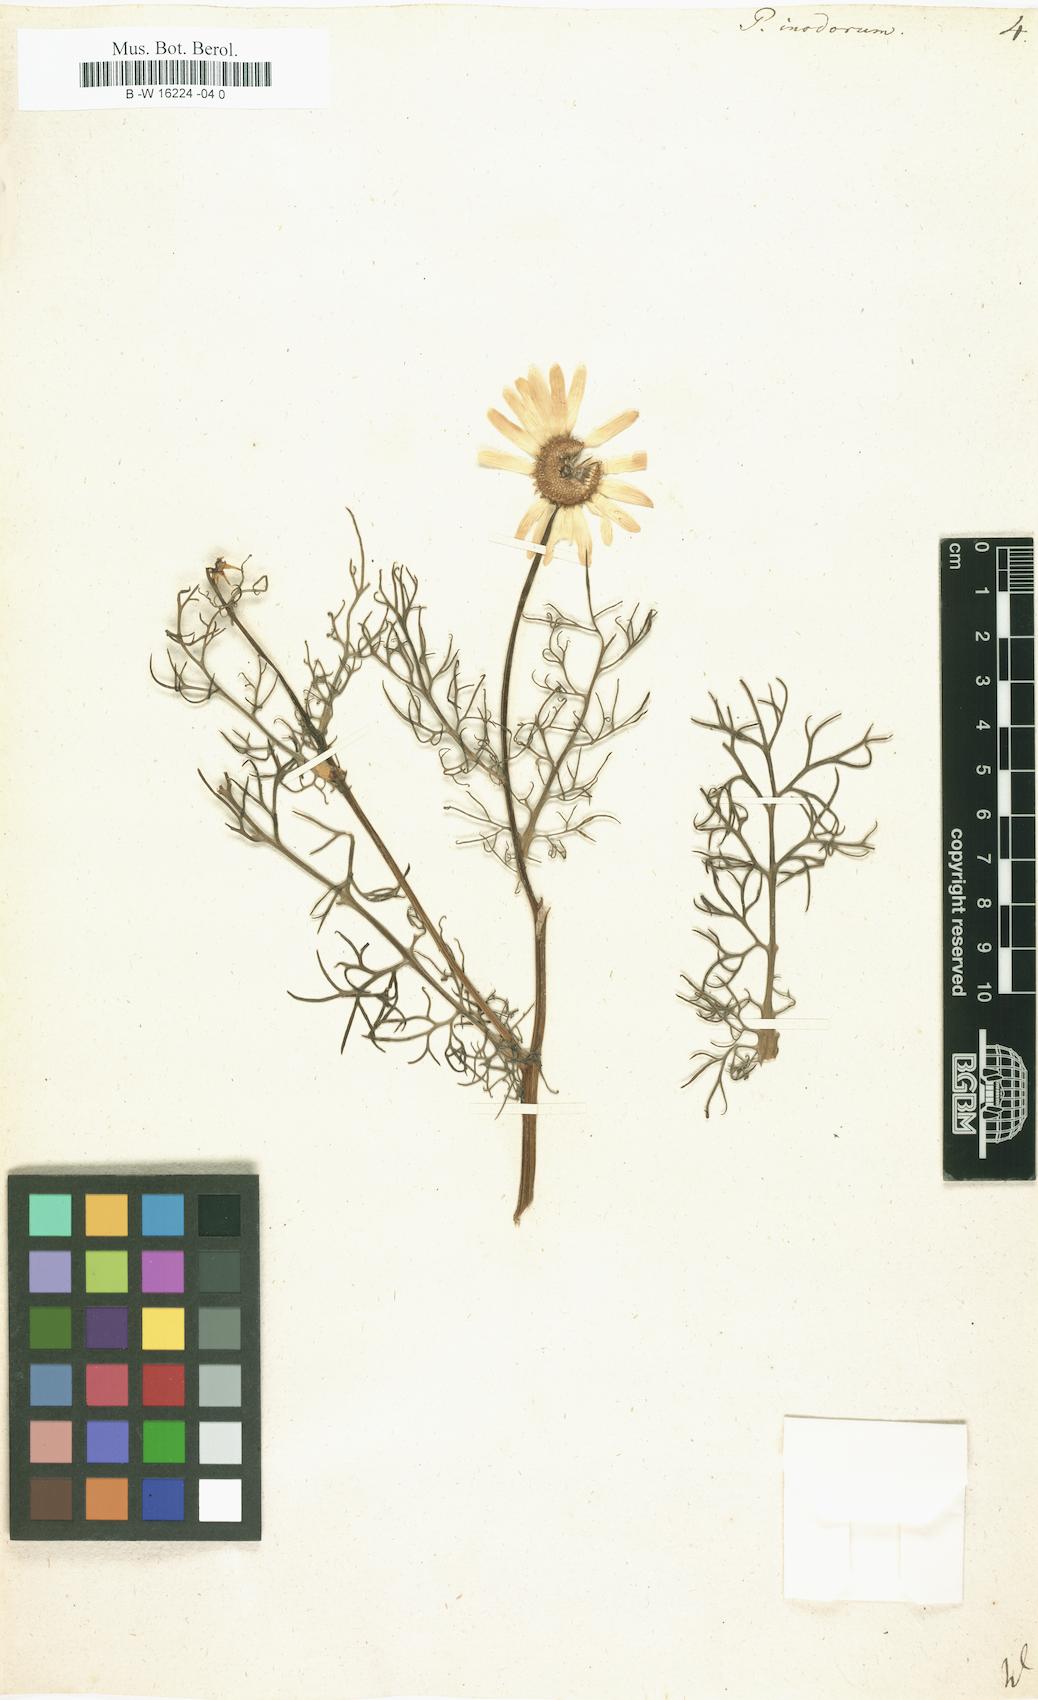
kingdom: Plantae
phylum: Tracheophyta
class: Magnoliopsida
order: Asterales
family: Asteraceae
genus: Tripleurospermum
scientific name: Tripleurospermum inodorum
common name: Scentless mayweed
